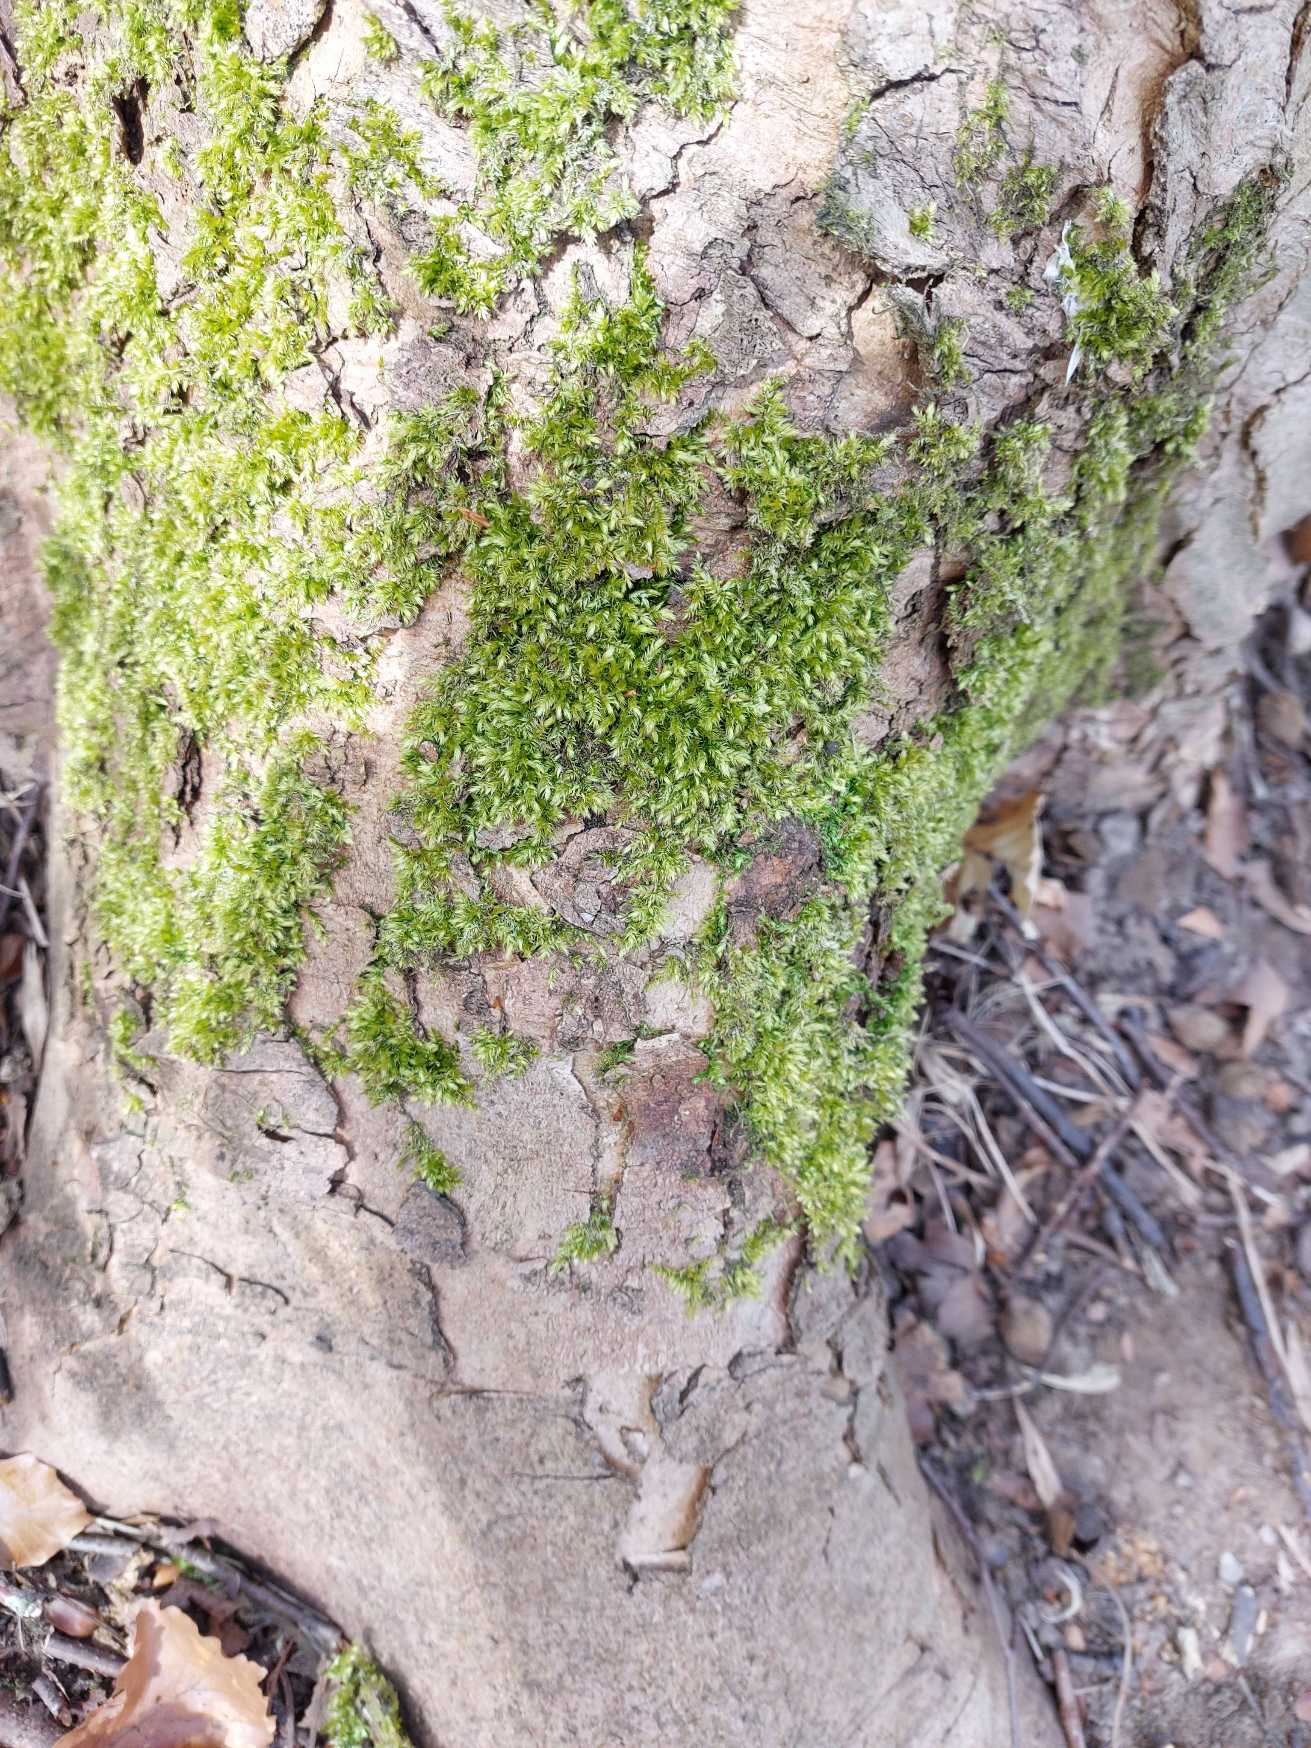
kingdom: Plantae
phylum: Bryophyta
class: Bryopsida
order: Hypnales
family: Brachytheciaceae
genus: Brachythecium
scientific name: Brachythecium rutabulum
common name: Almindelig kortkapsel
